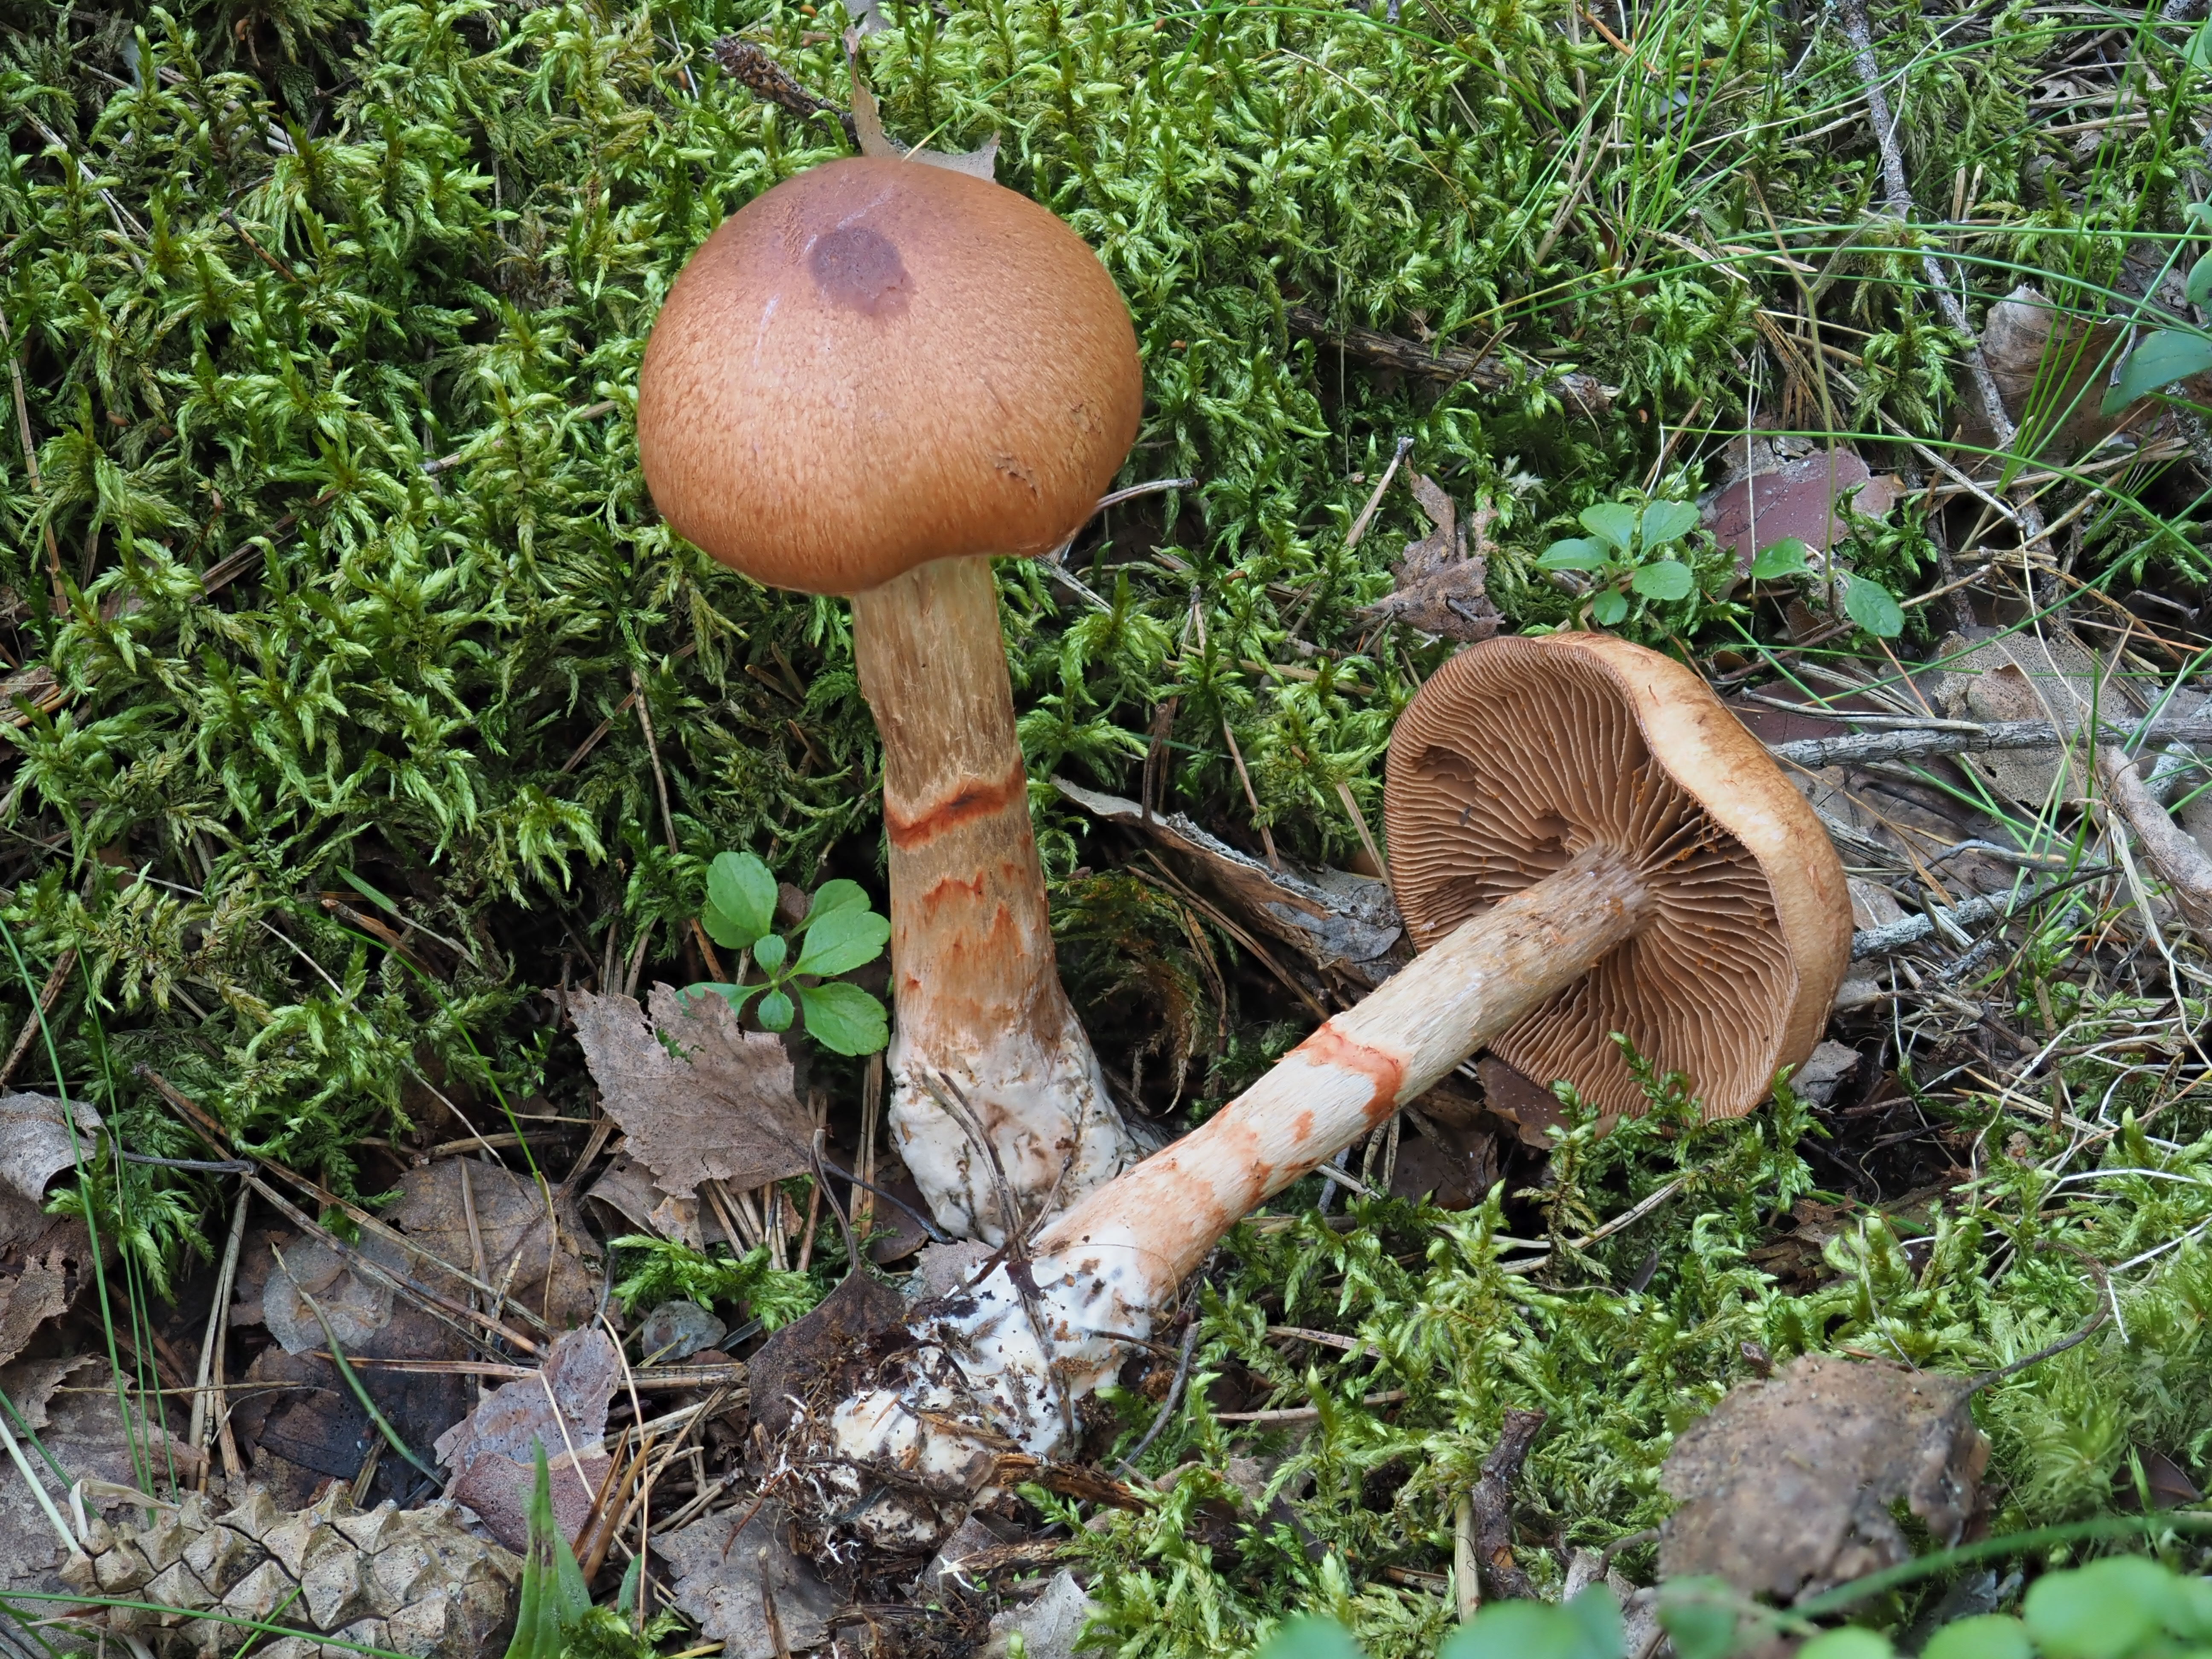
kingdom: Fungi
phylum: Basidiomycota
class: Agaricomycetes
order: Agaricales
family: Cortinariaceae
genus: Cortinarius
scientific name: Cortinarius armillatus
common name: Red banded webcap
